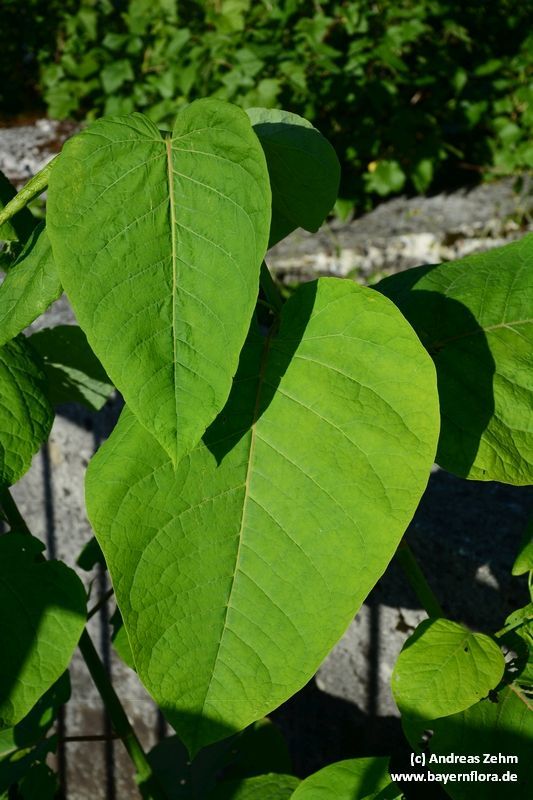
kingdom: Plantae
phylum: Tracheophyta
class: Magnoliopsida
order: Caryophyllales
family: Polygonaceae
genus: Reynoutria
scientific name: Reynoutria sachalinensis
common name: Giant knotweed
